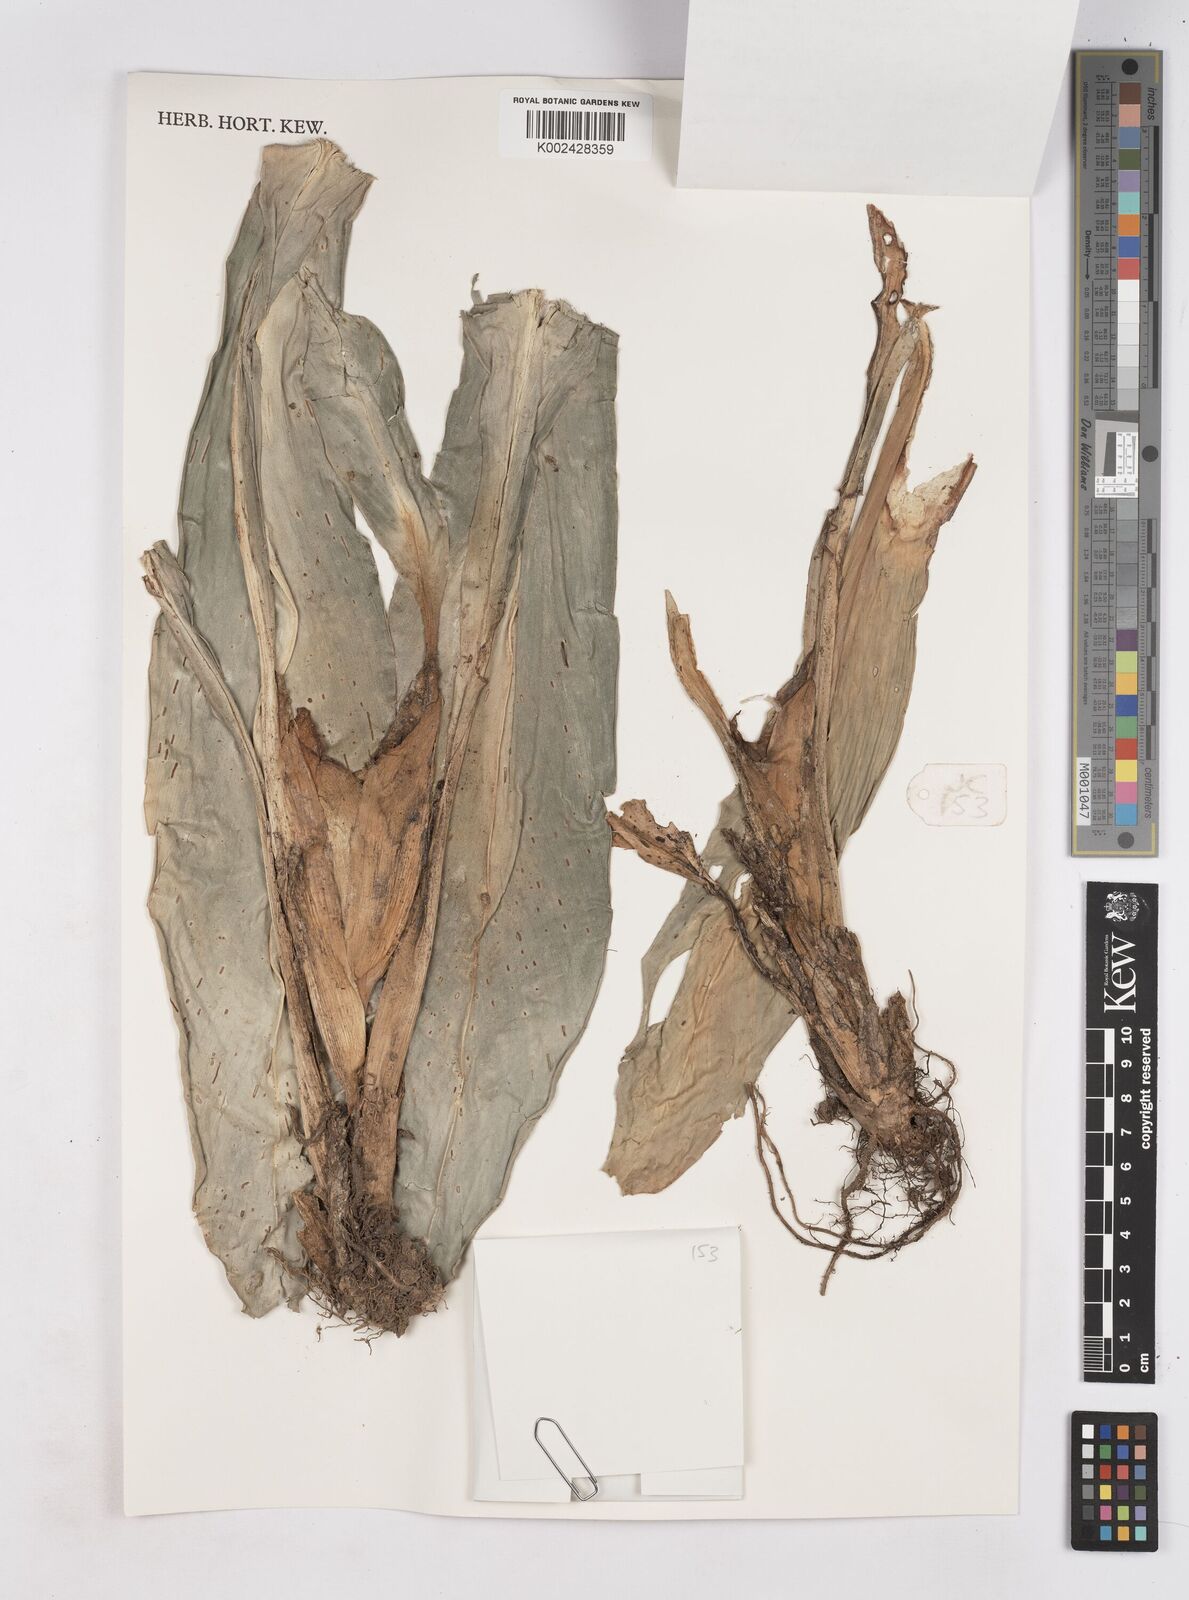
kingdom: Plantae
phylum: Tracheophyta
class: Liliopsida
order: Zingiberales
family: Zingiberaceae
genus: Boesenbergia
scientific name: Boesenbergia armeniaca
